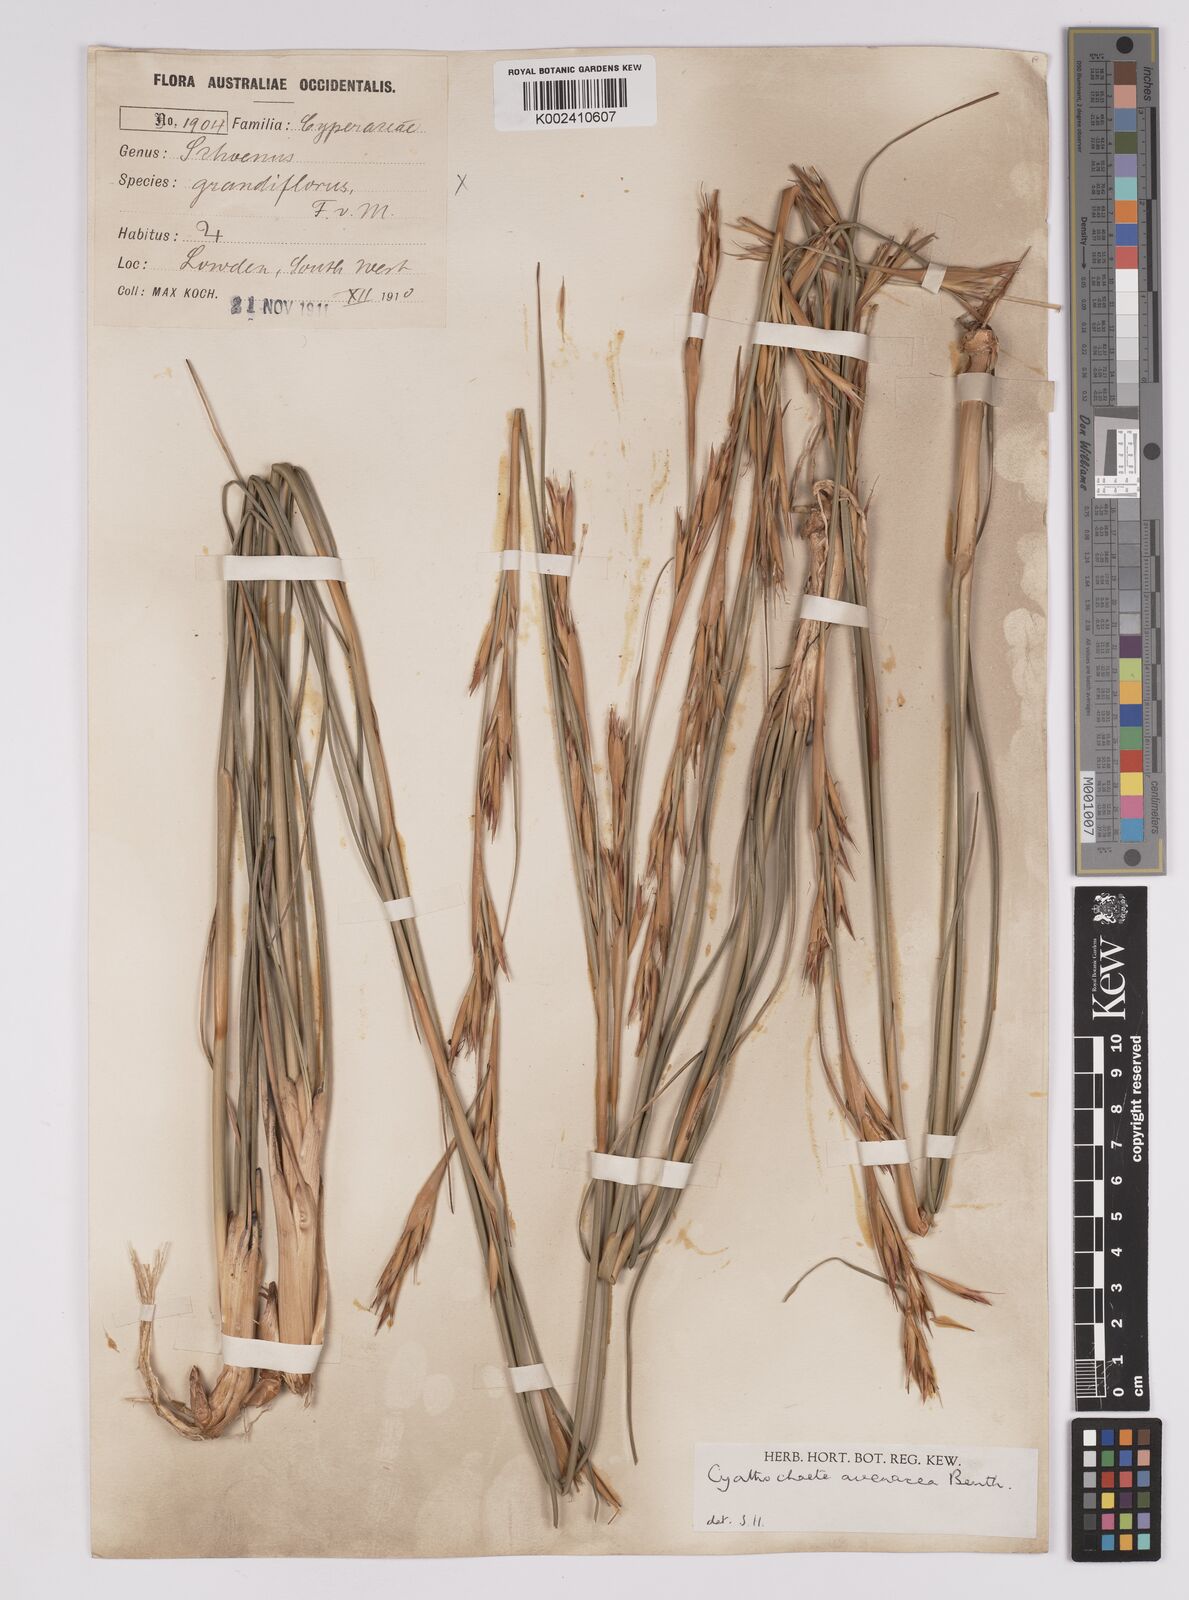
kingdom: Plantae
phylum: Tracheophyta
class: Liliopsida
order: Poales
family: Cyperaceae
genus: Cyathochaeta
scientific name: Cyathochaeta avenacea
